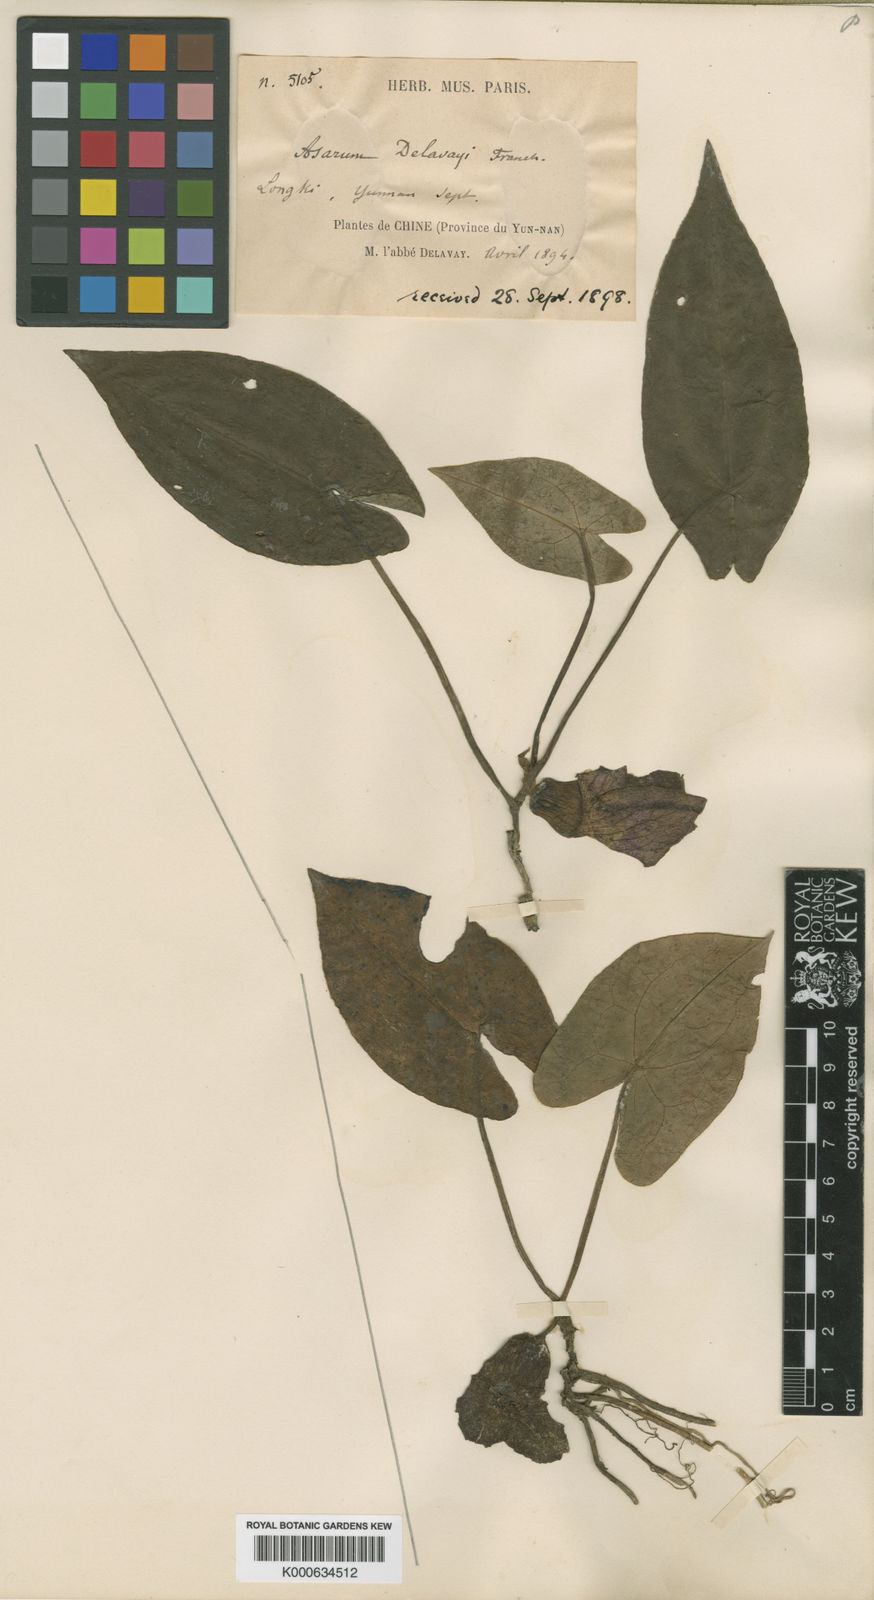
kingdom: Plantae
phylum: Tracheophyta
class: Magnoliopsida
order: Piperales
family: Aristolochiaceae
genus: Asarum
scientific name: Asarum delavayi
